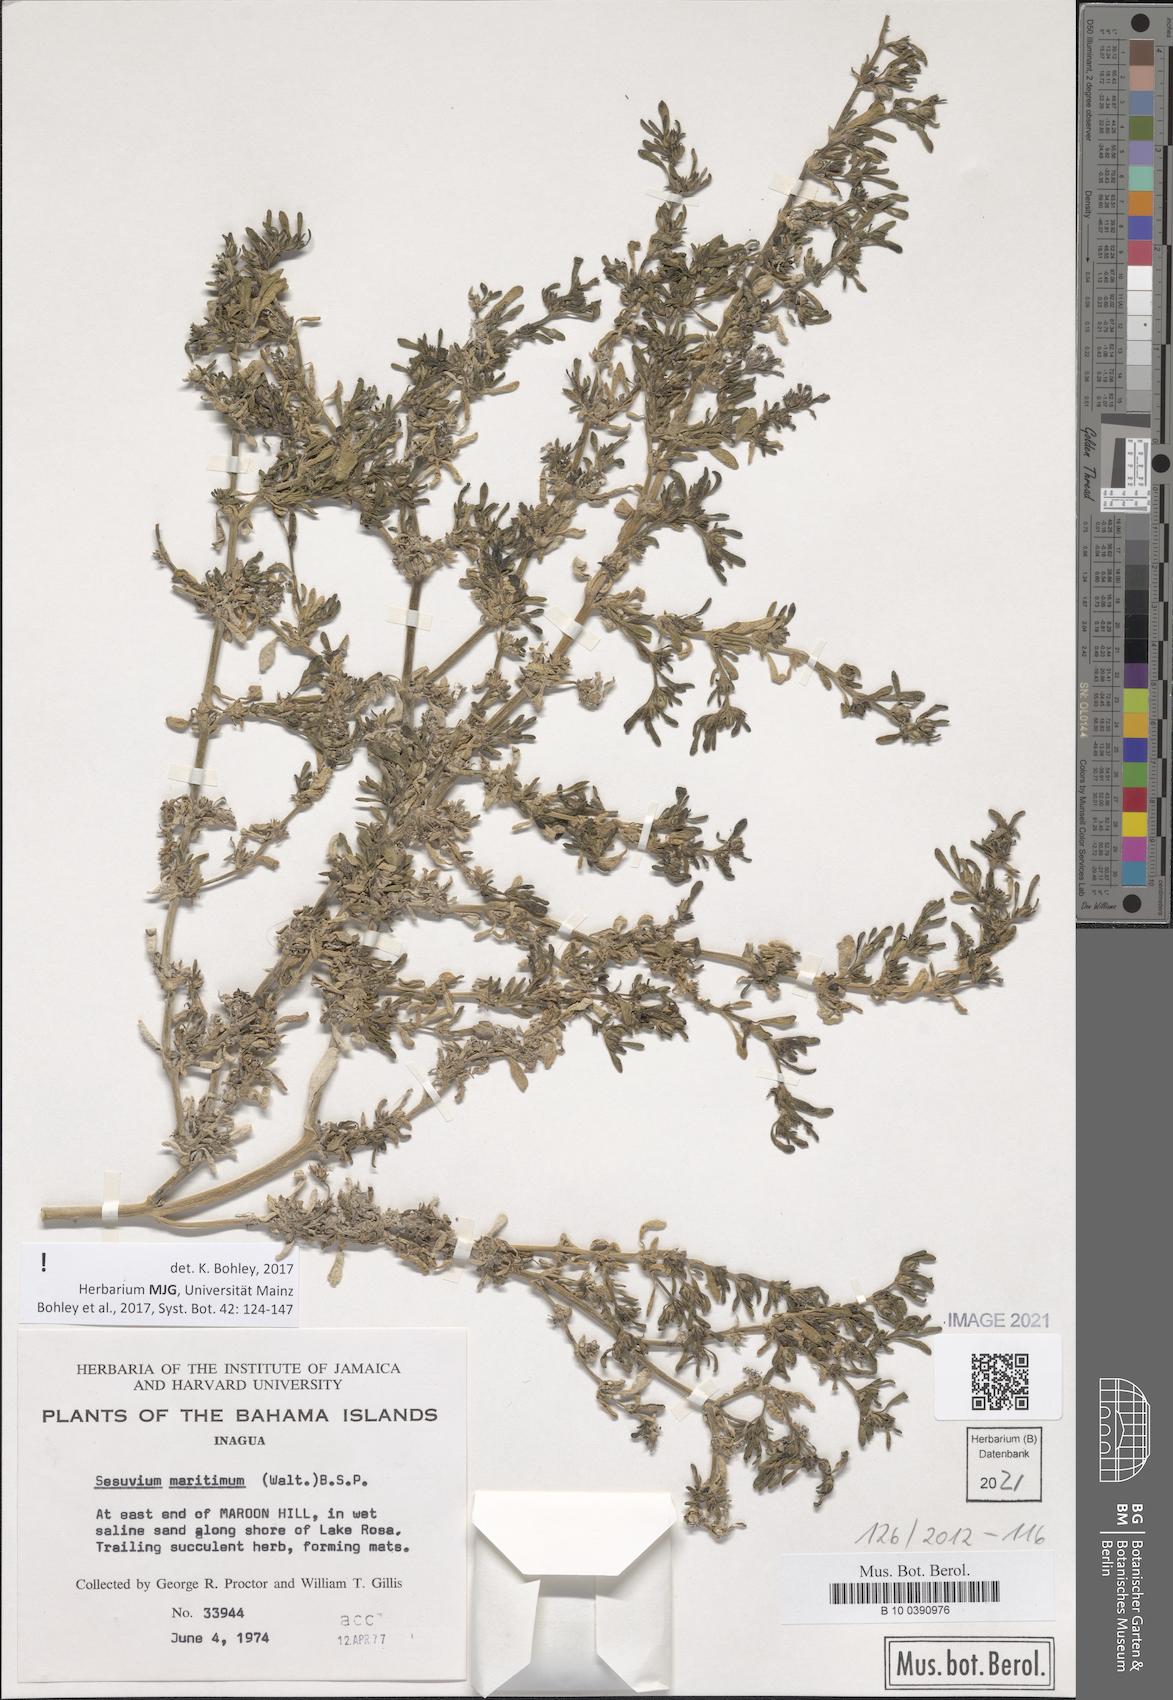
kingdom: Plantae
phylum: Tracheophyta
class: Magnoliopsida
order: Caryophyllales
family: Aizoaceae
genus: Sesuvium
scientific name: Sesuvium maritimum
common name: Slender sea-purslane
